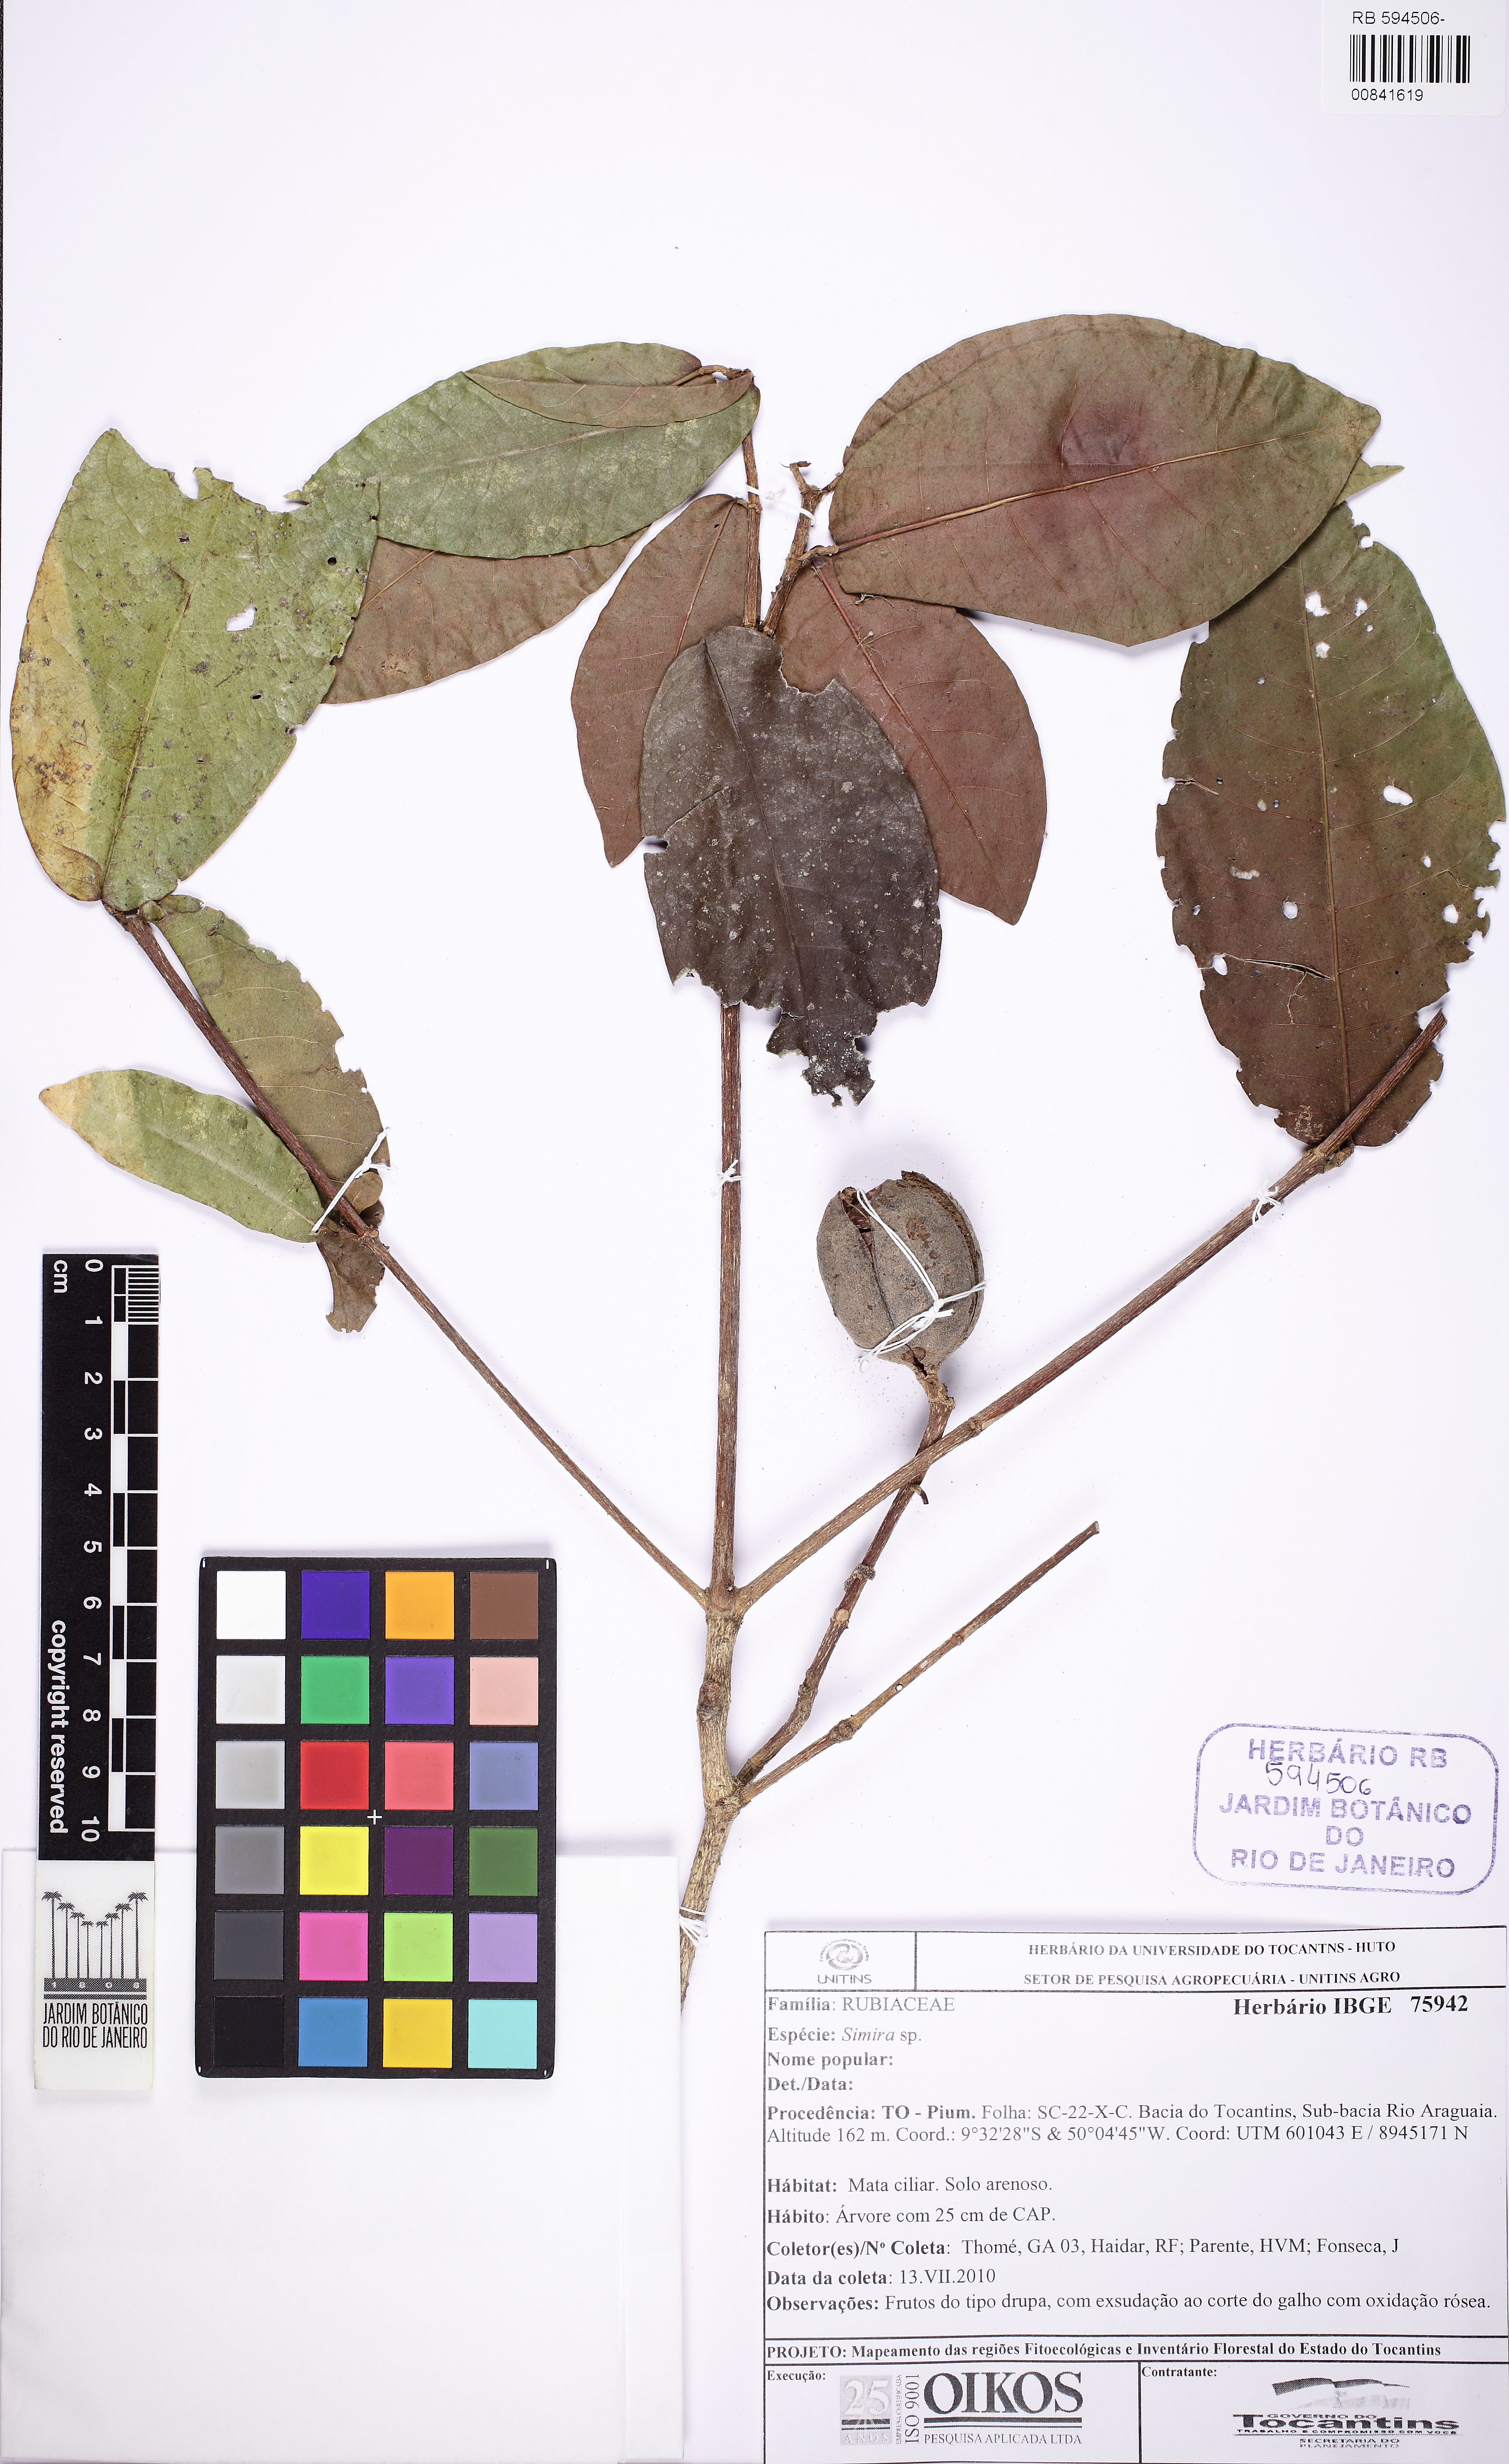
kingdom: Plantae
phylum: Tracheophyta
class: Magnoliopsida
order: Gentianales
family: Rubiaceae
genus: Simira
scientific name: Simira
